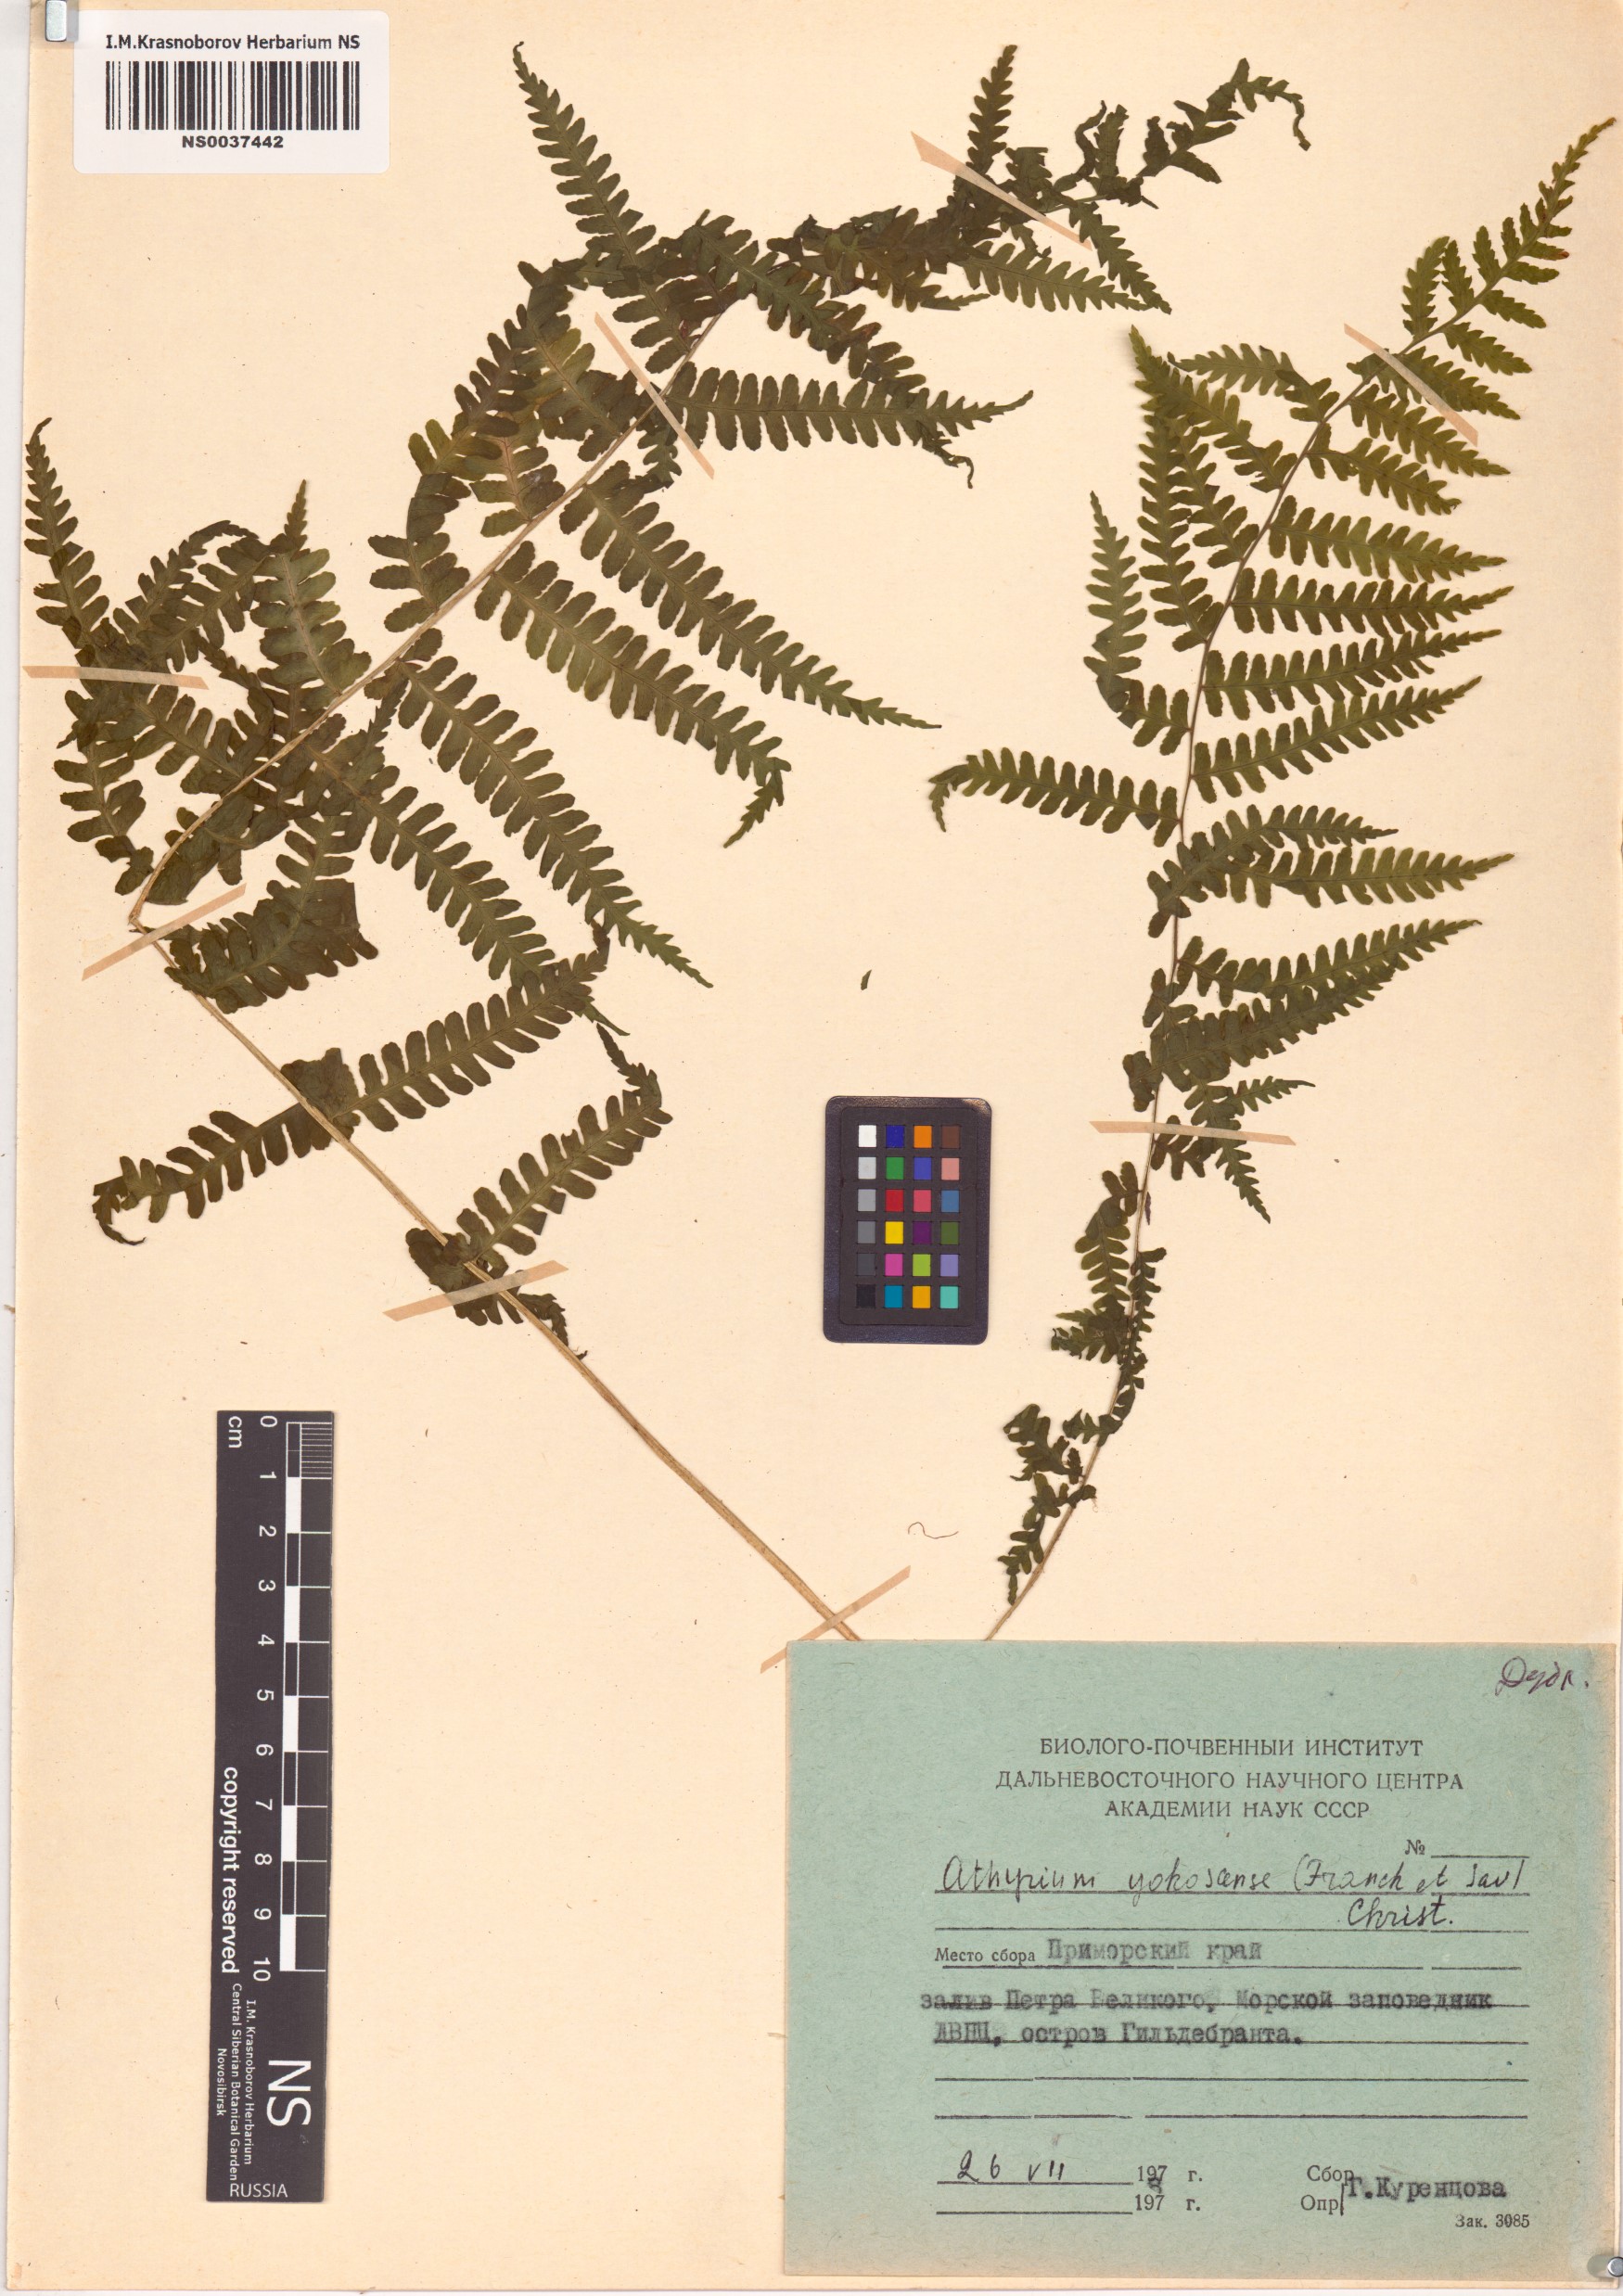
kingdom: Plantae
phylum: Tracheophyta
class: Polypodiopsida
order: Polypodiales
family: Athyriaceae
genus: Athyrium
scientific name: Athyrium yokoscense
